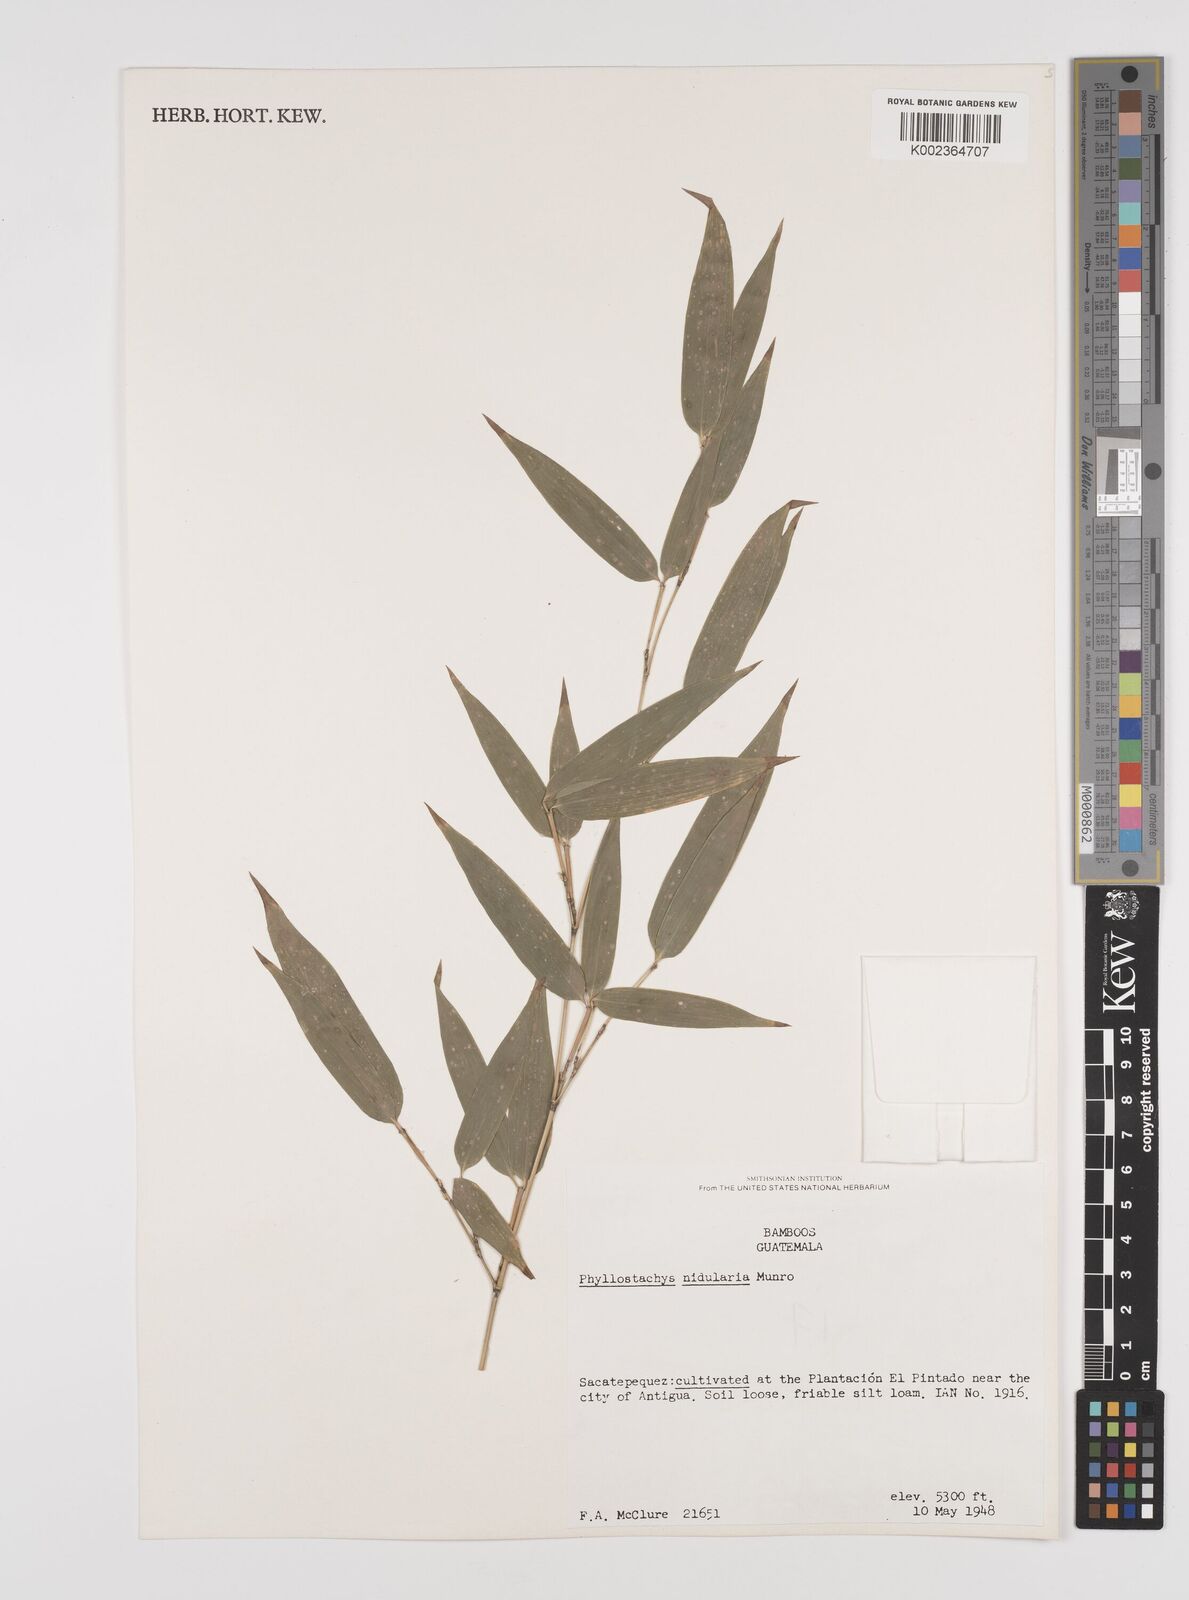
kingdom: Plantae
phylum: Tracheophyta
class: Liliopsida
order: Poales
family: Poaceae
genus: Phyllostachys
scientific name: Phyllostachys nidularia
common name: Broom bamboo
